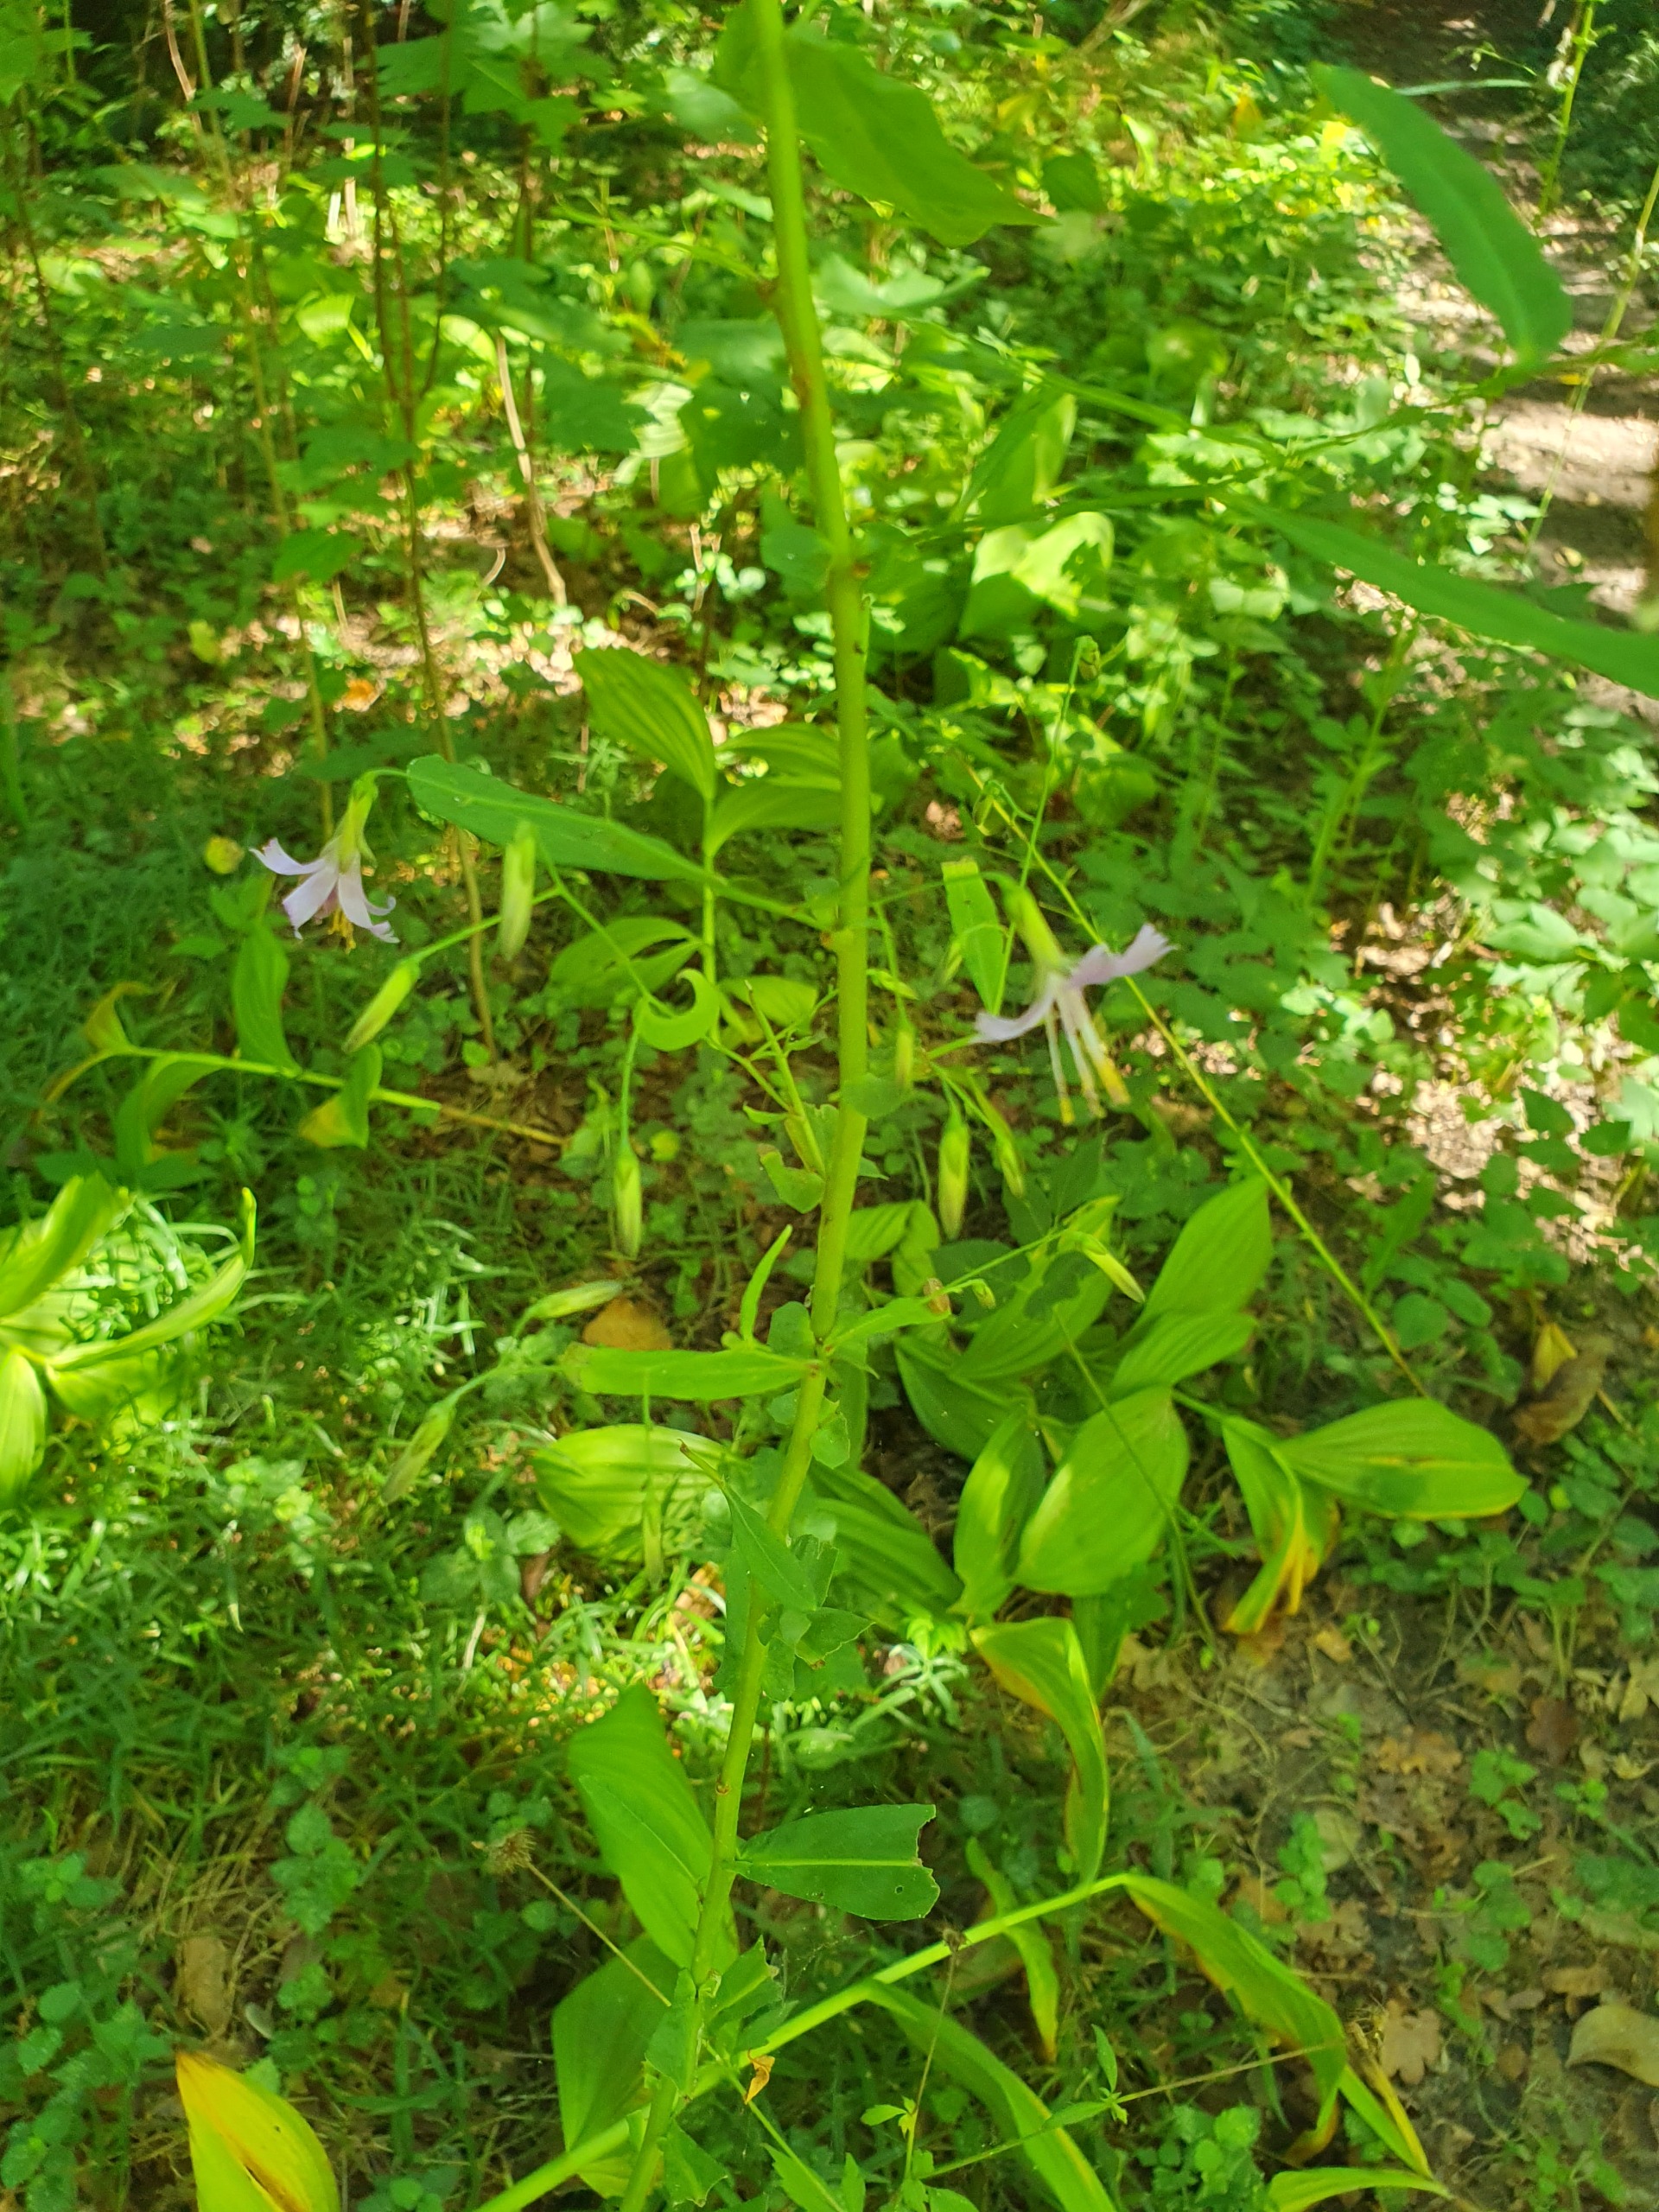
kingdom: Plantae
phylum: Tracheophyta
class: Magnoliopsida
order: Asterales
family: Asteraceae
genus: Prenanthes
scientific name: Prenanthes purpurea
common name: Hængekurv
